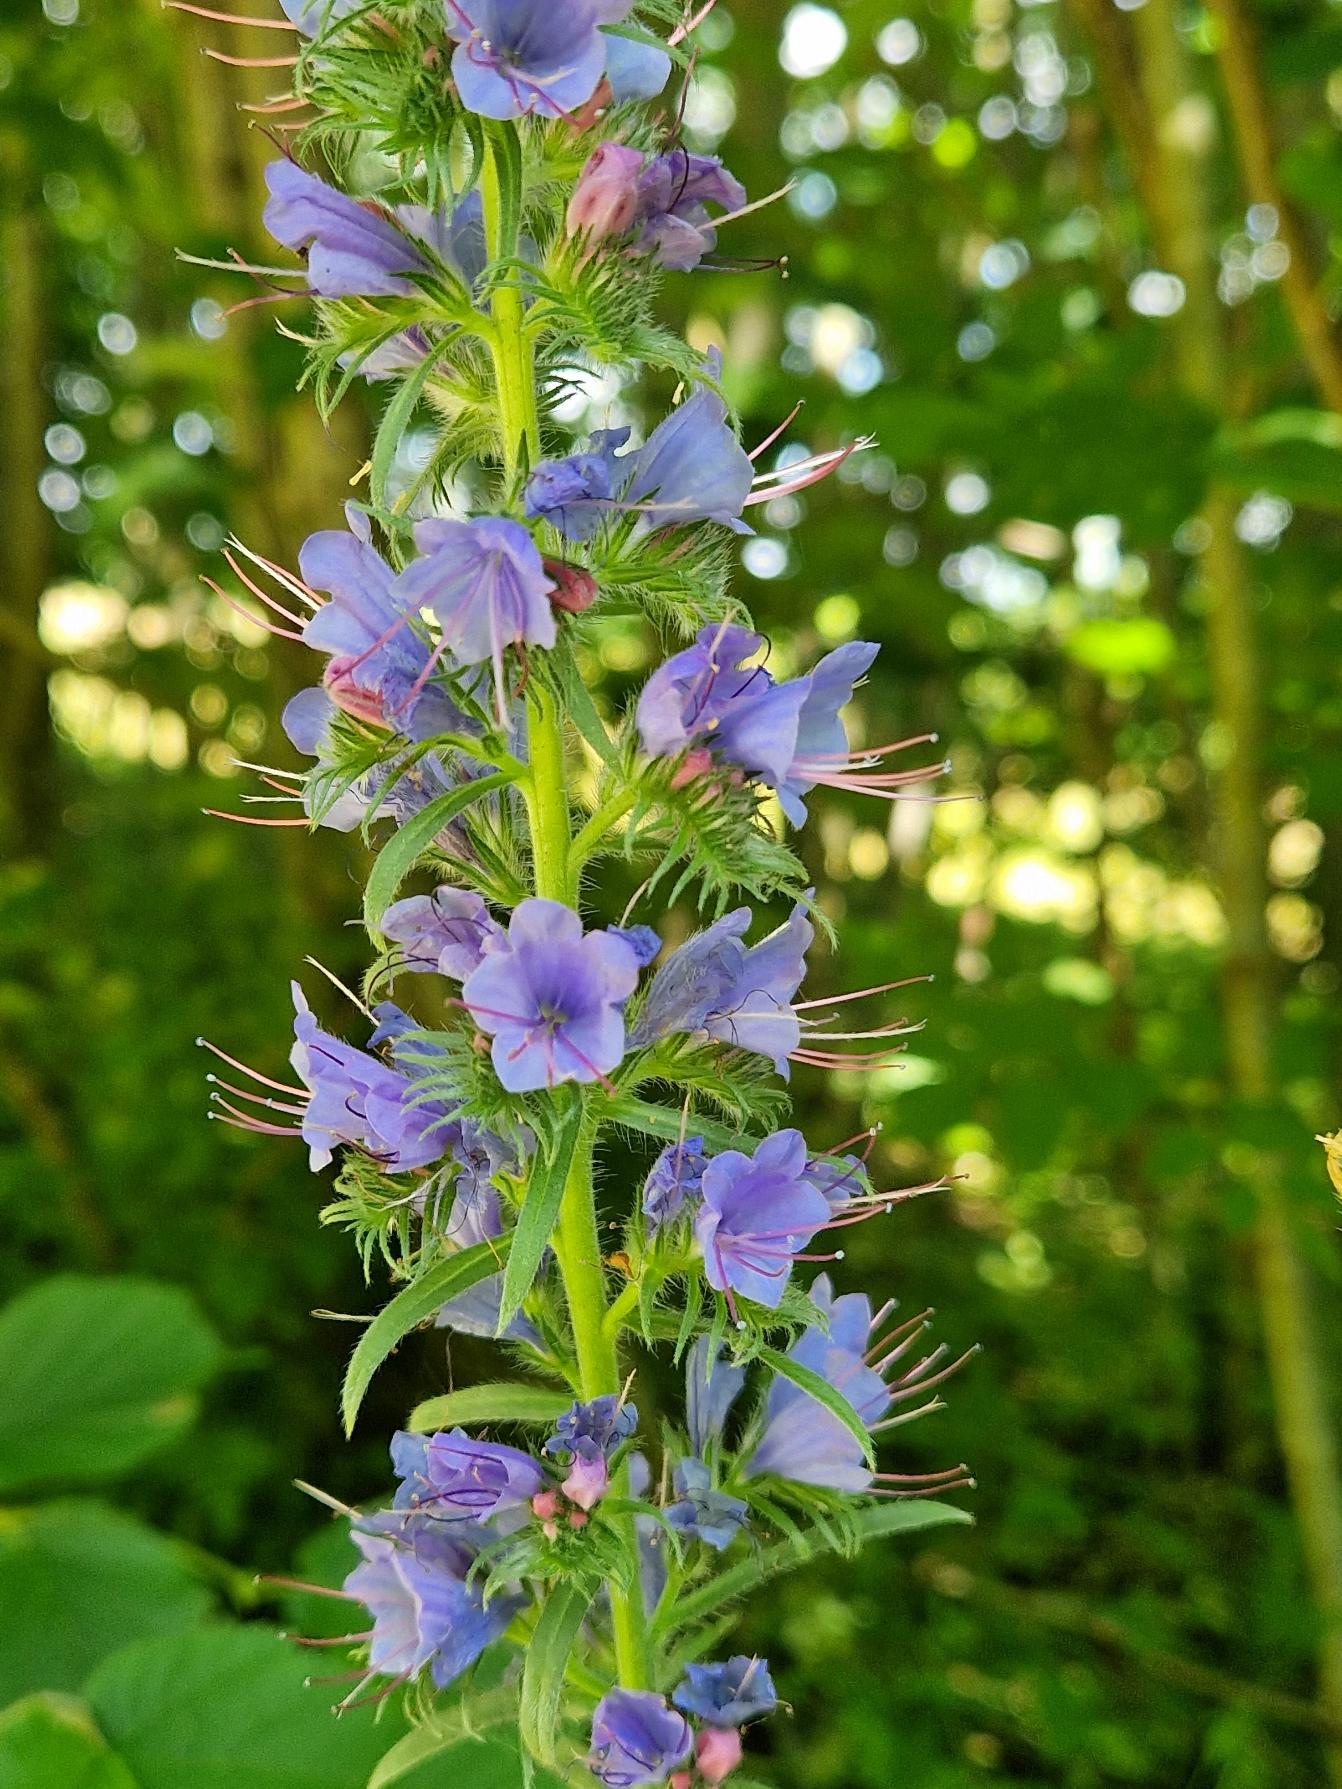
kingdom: Plantae
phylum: Tracheophyta
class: Magnoliopsida
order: Boraginales
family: Boraginaceae
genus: Echium
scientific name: Echium vulgare
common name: Slangehoved
